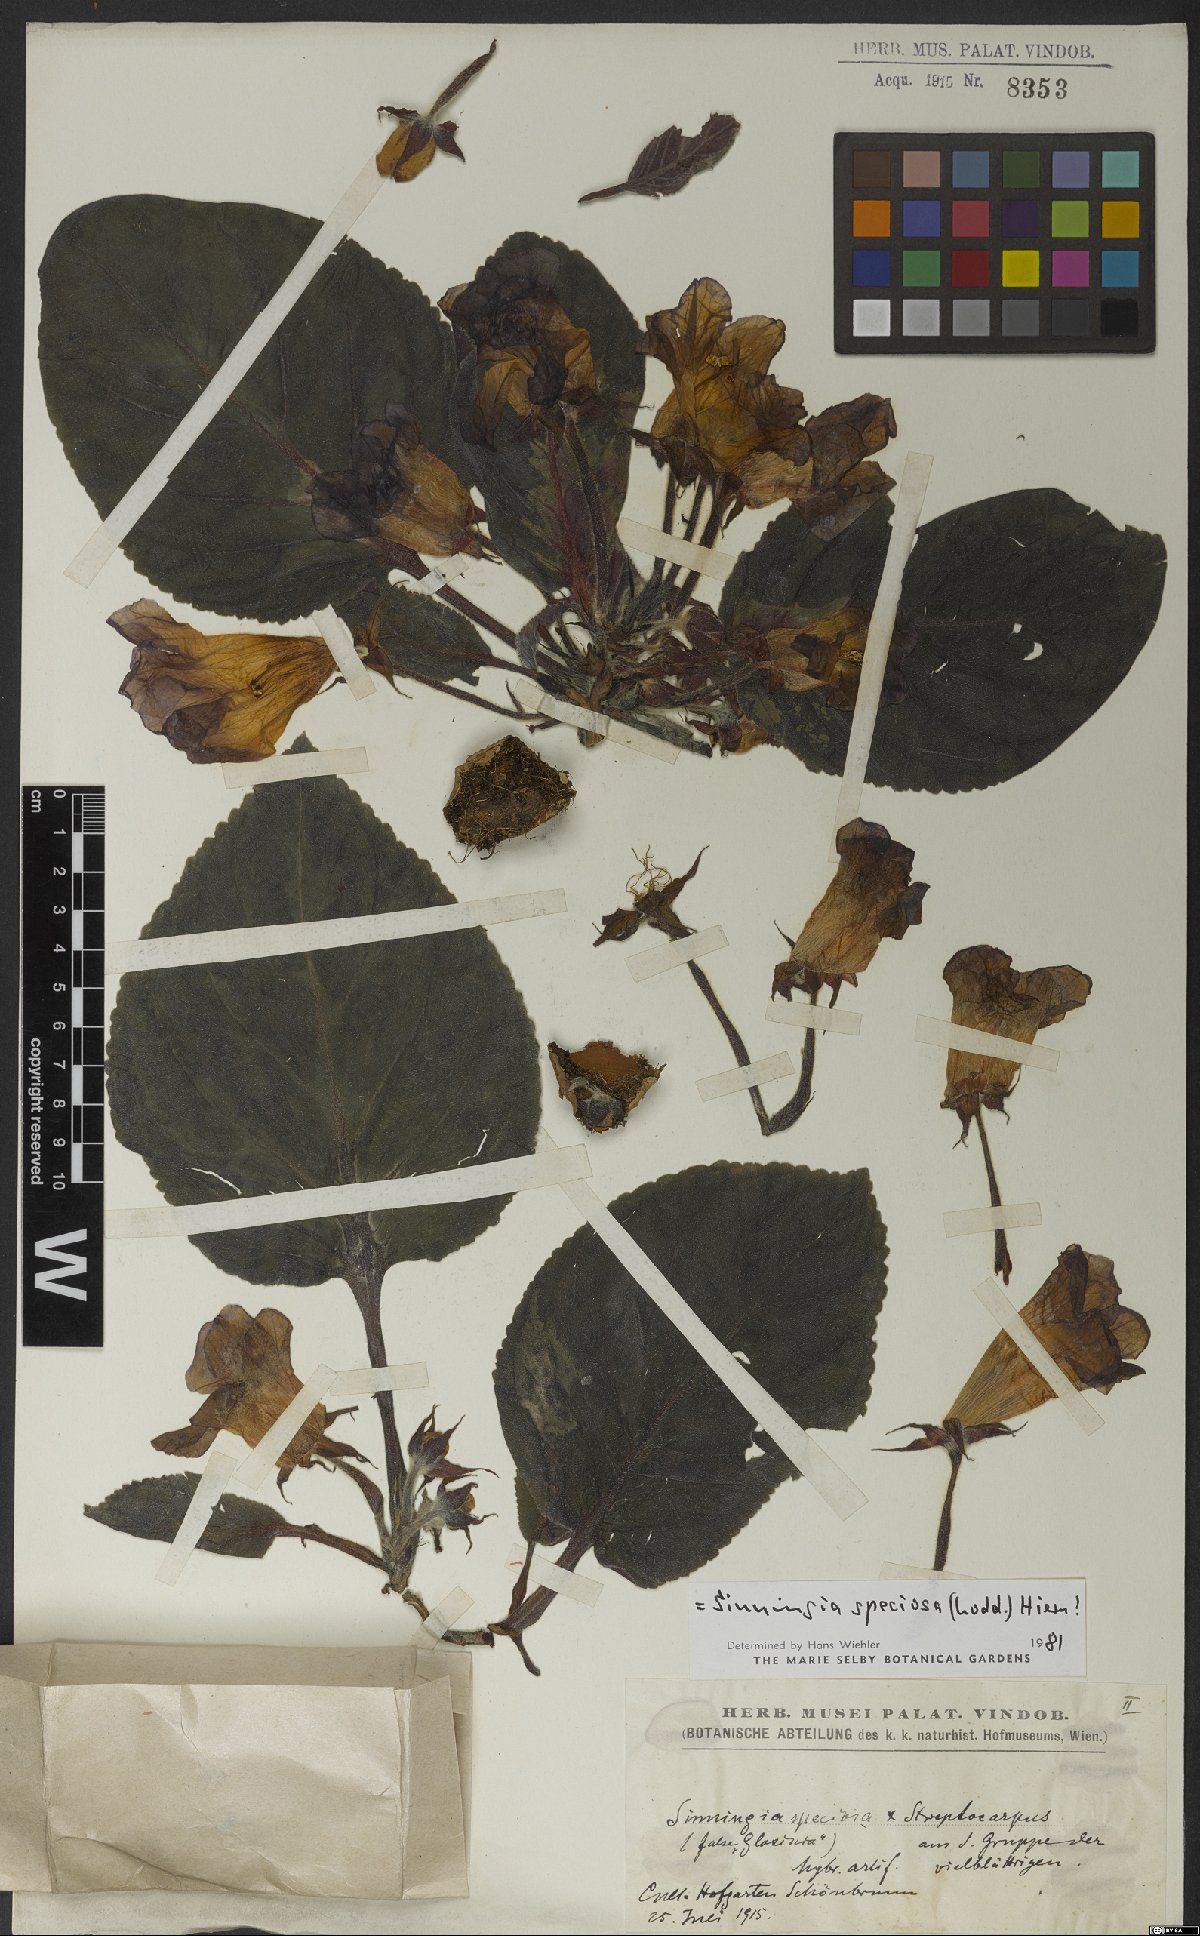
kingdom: Plantae
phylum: Tracheophyta
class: Magnoliopsida
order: Lamiales
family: Gesneriaceae
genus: Sinningia
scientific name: Sinningia speciosa
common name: Brazilian gloxinia
